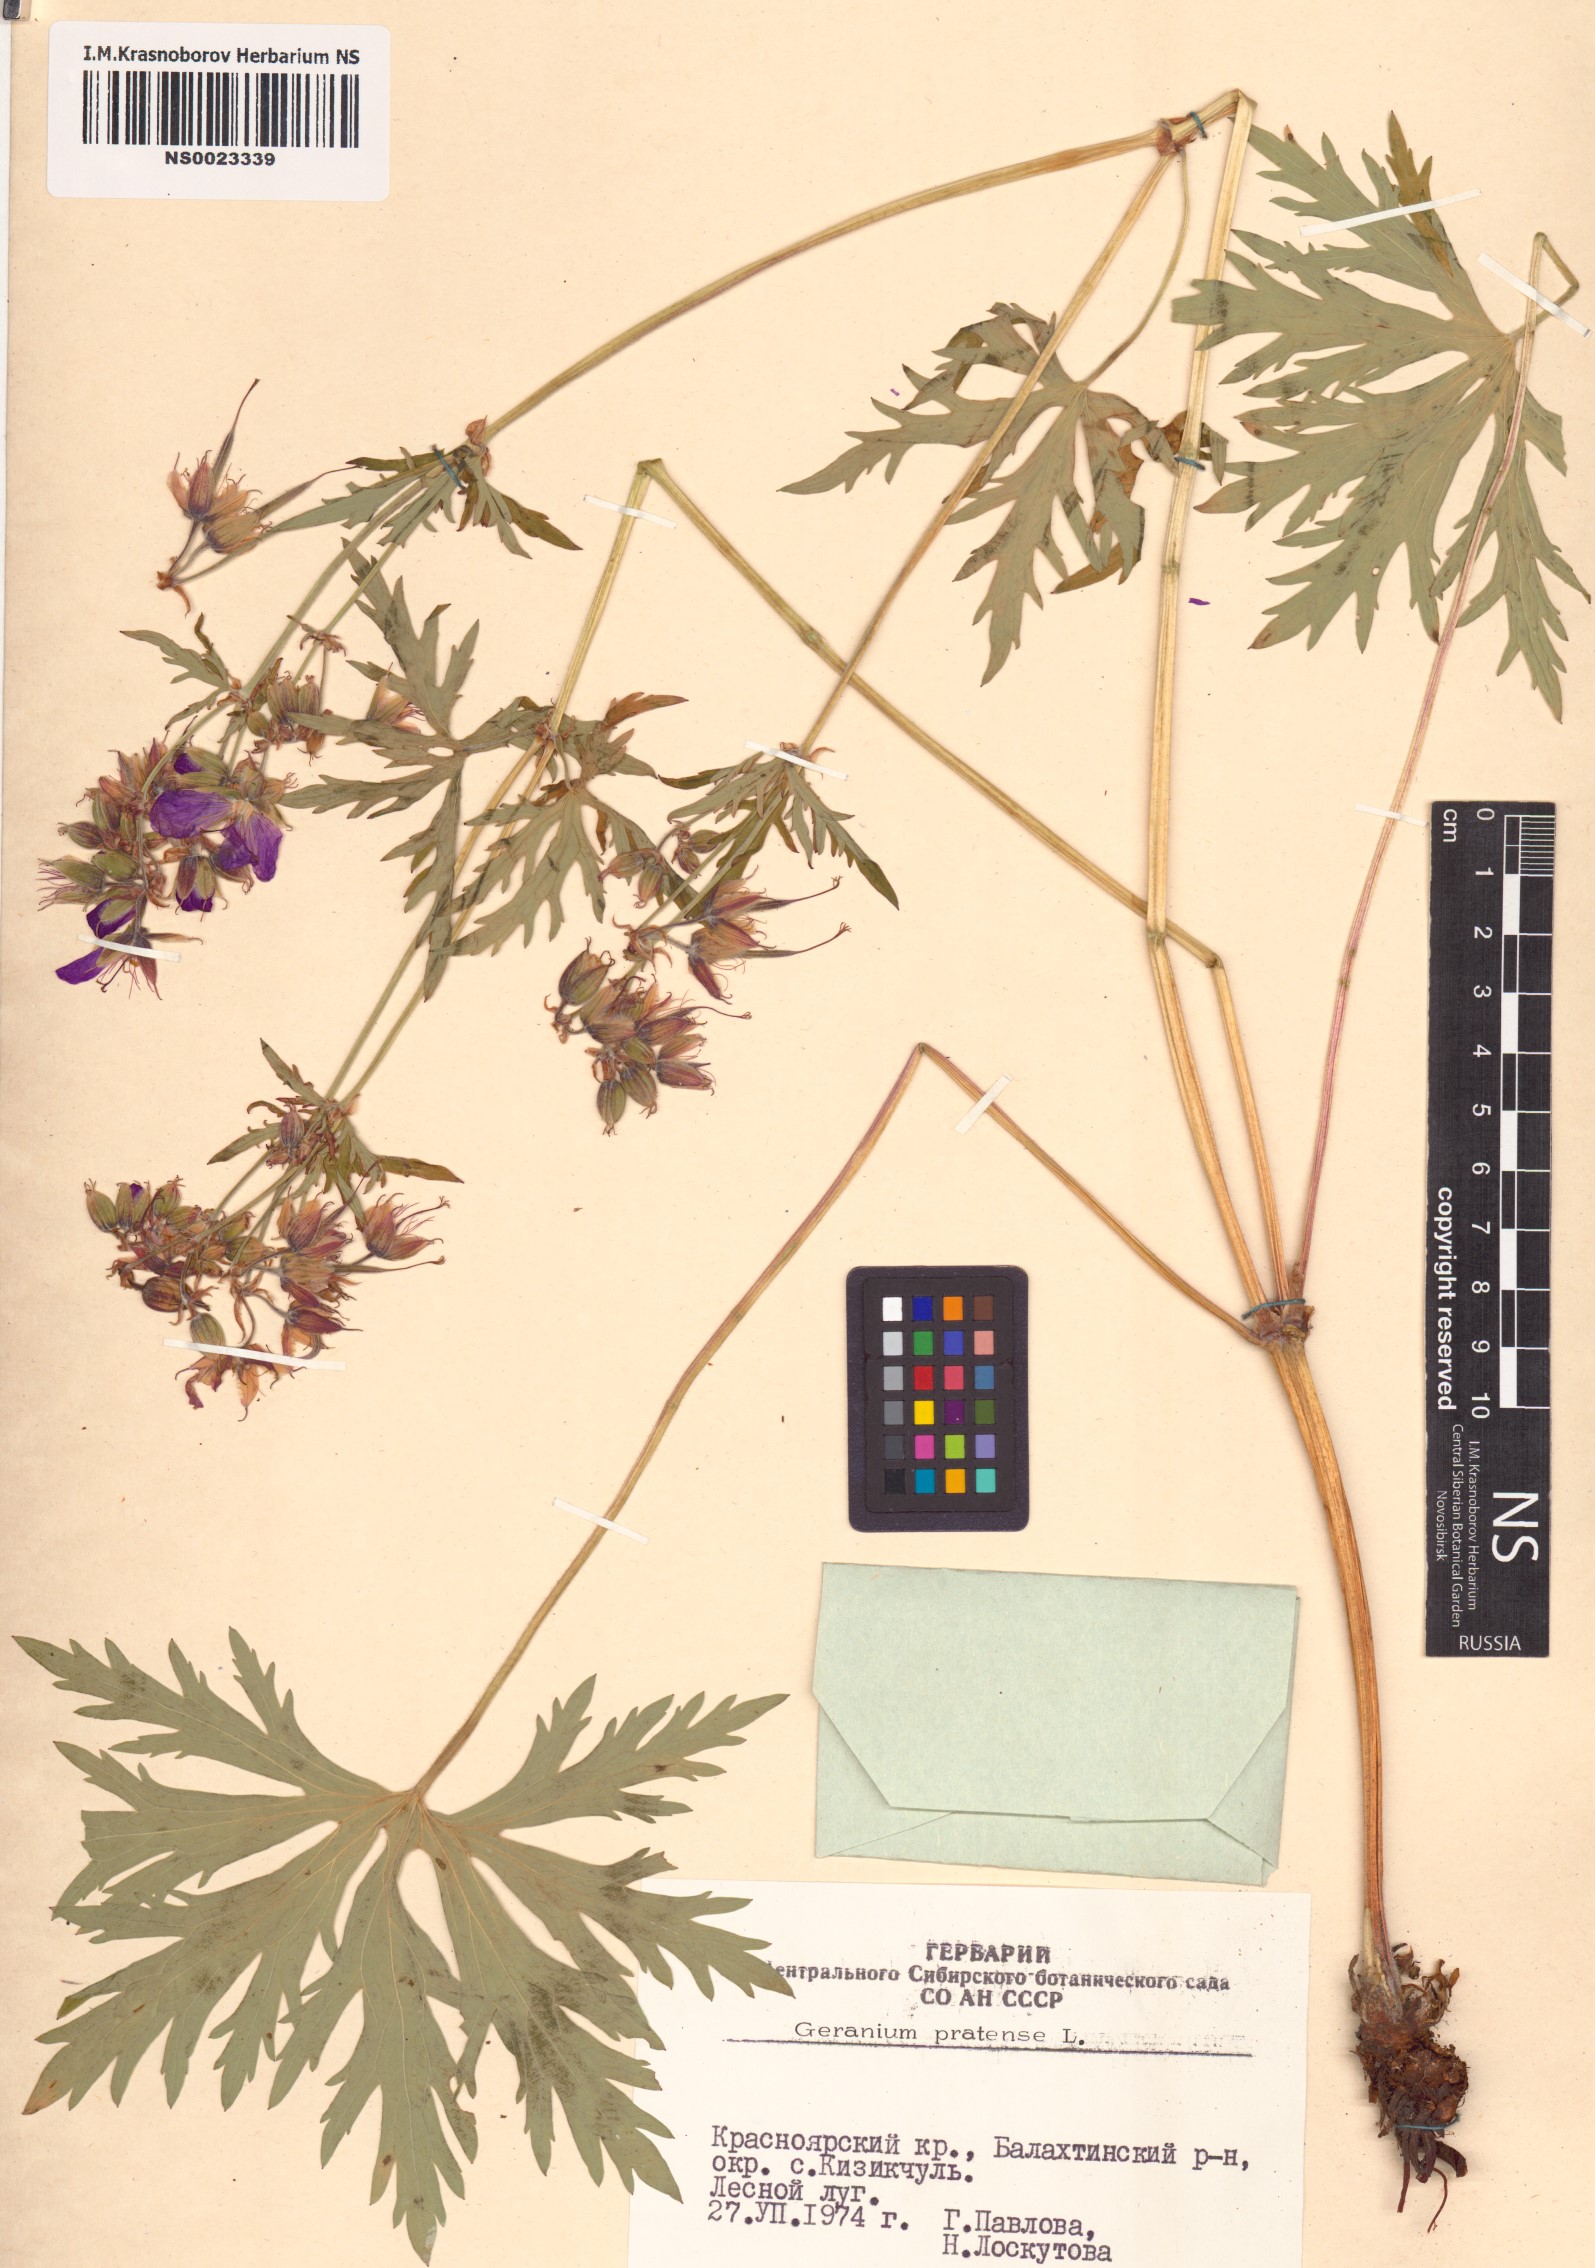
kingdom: Plantae
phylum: Tracheophyta
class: Magnoliopsida
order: Geraniales
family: Geraniaceae
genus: Geranium
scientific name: Geranium pratense
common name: Meadow crane's-bill
